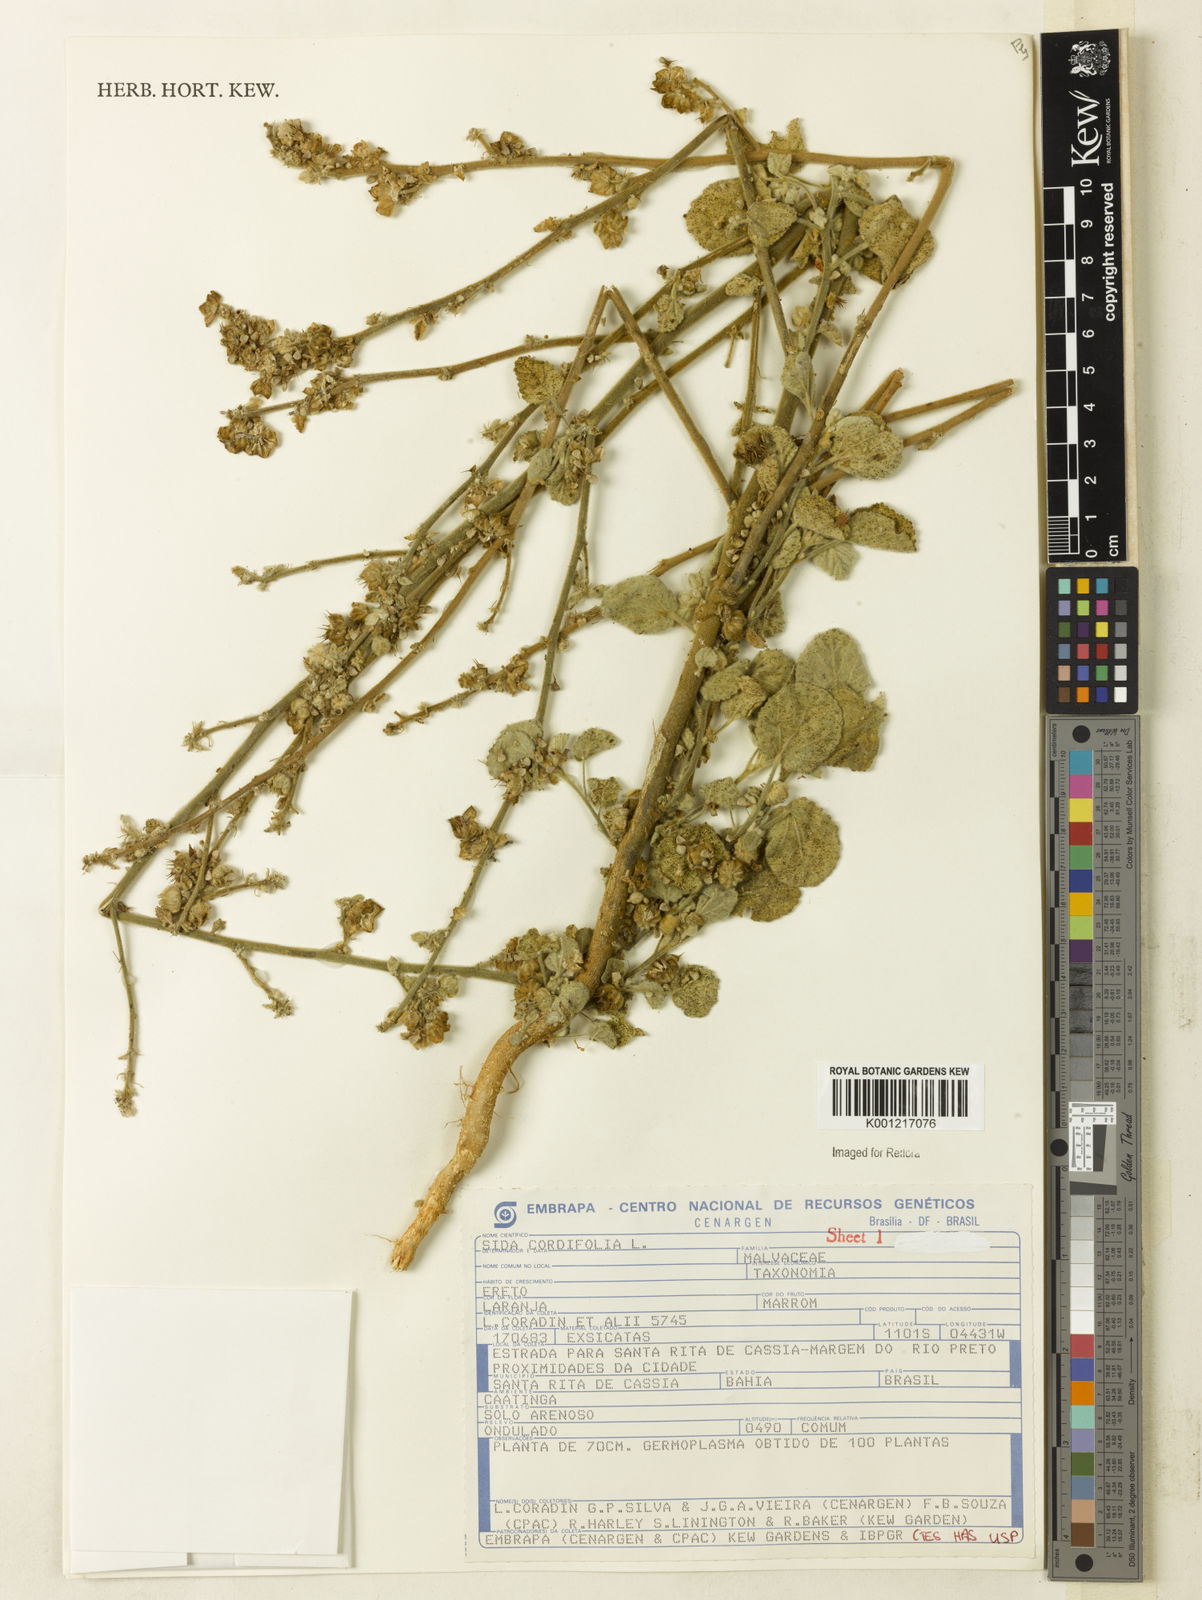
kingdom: Plantae
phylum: Tracheophyta
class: Magnoliopsida
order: Malvales
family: Malvaceae
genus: Sida
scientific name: Sida cordifolia
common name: Ilima
